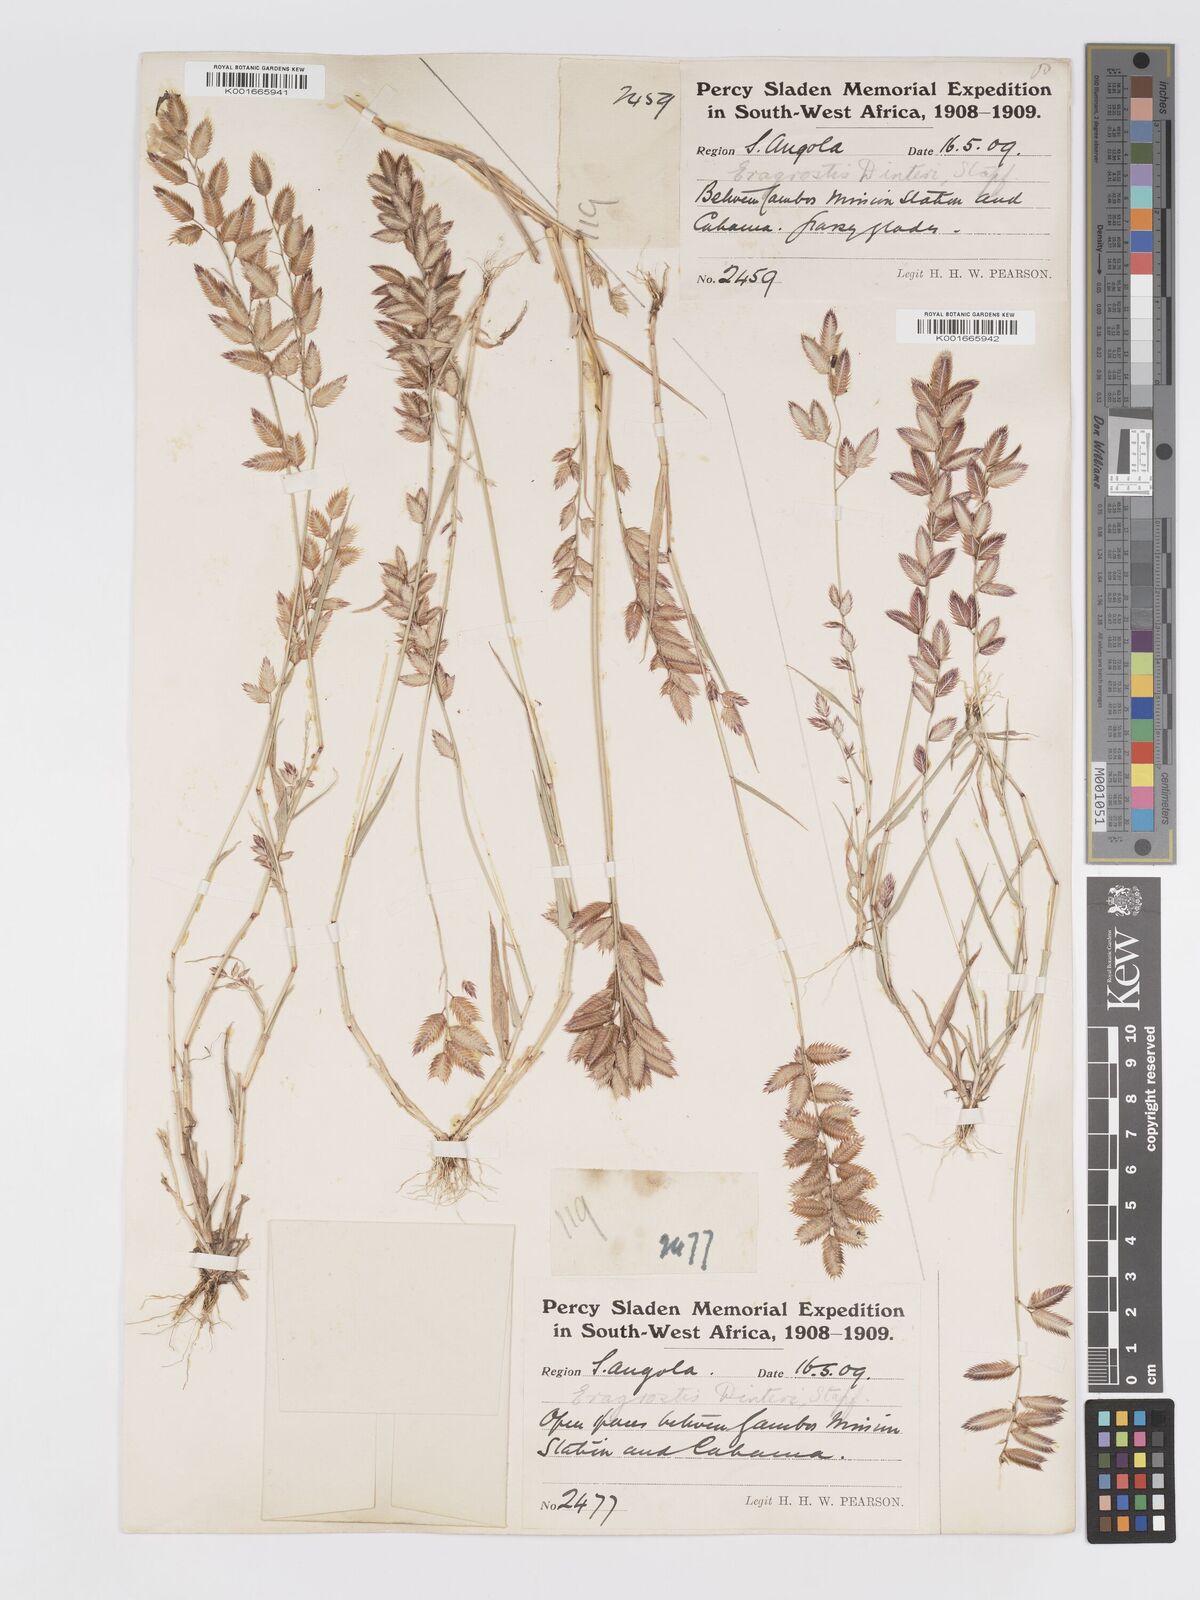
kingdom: Plantae
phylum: Tracheophyta
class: Liliopsida
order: Poales
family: Poaceae
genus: Eragrostis
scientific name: Eragrostis variegata
